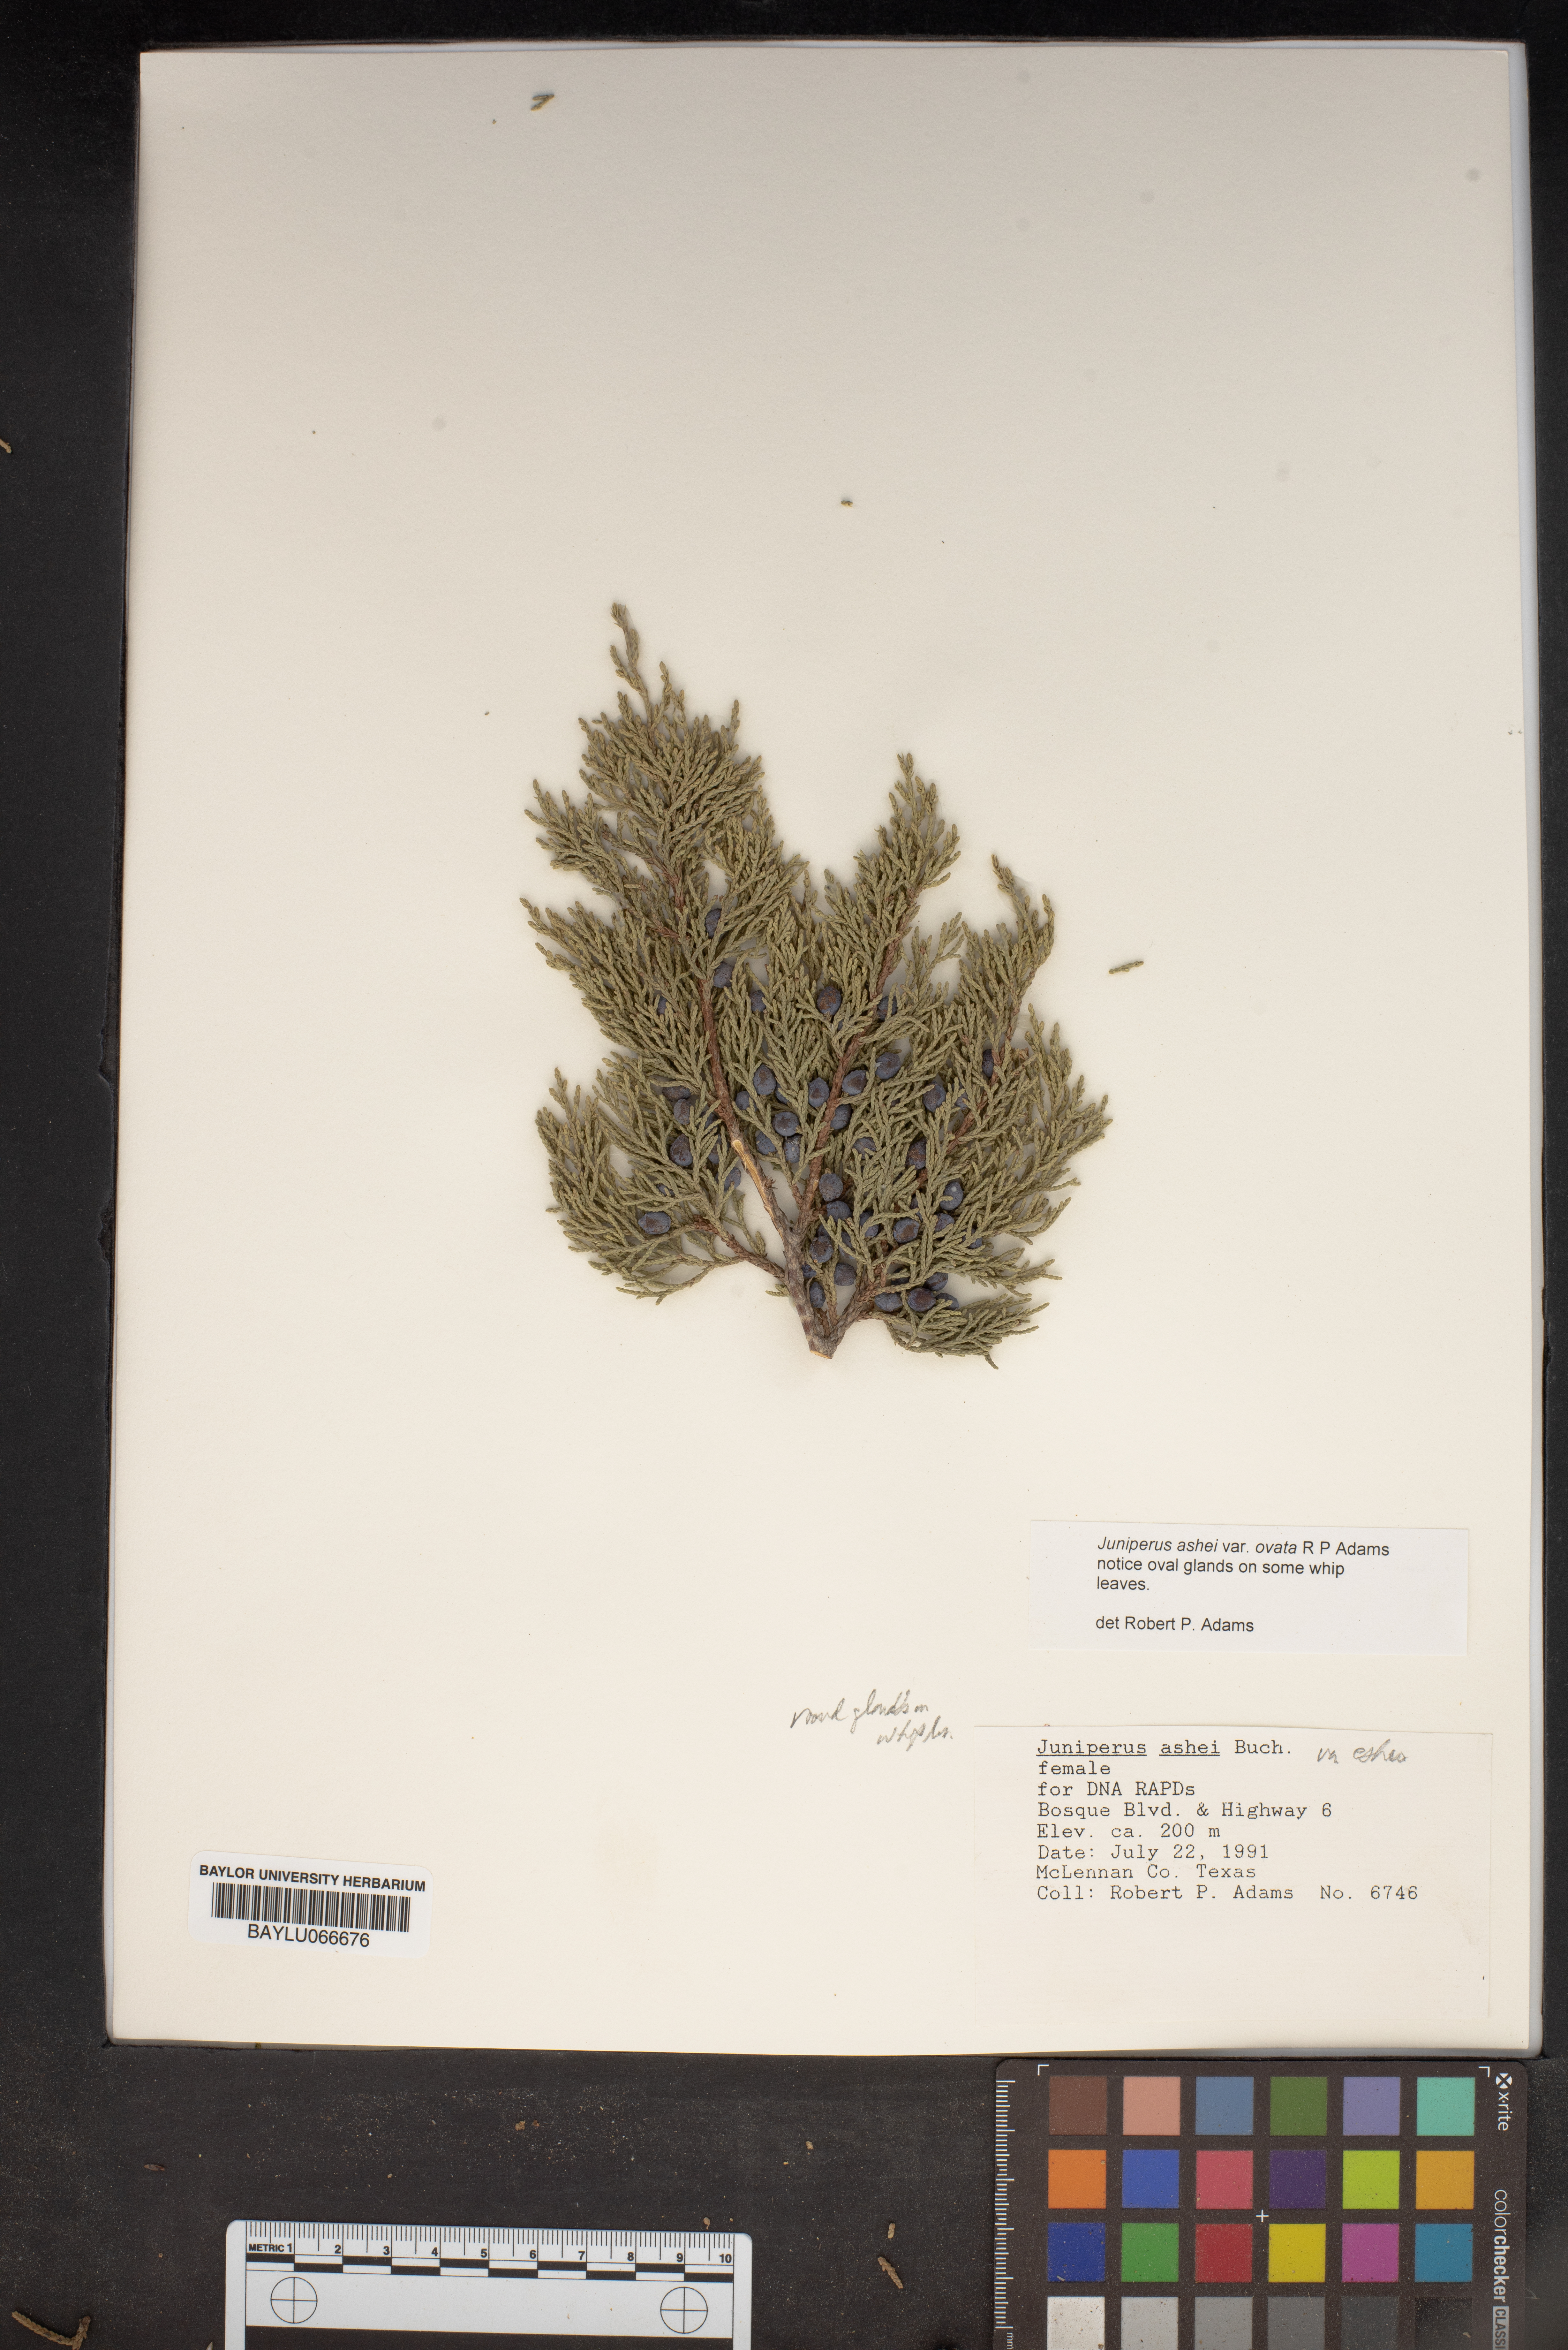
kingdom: Plantae
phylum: Tracheophyta
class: Pinopsida
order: Pinales
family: Cupressaceae
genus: Juniperus
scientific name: Juniperus ashei
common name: Mexican juniper
